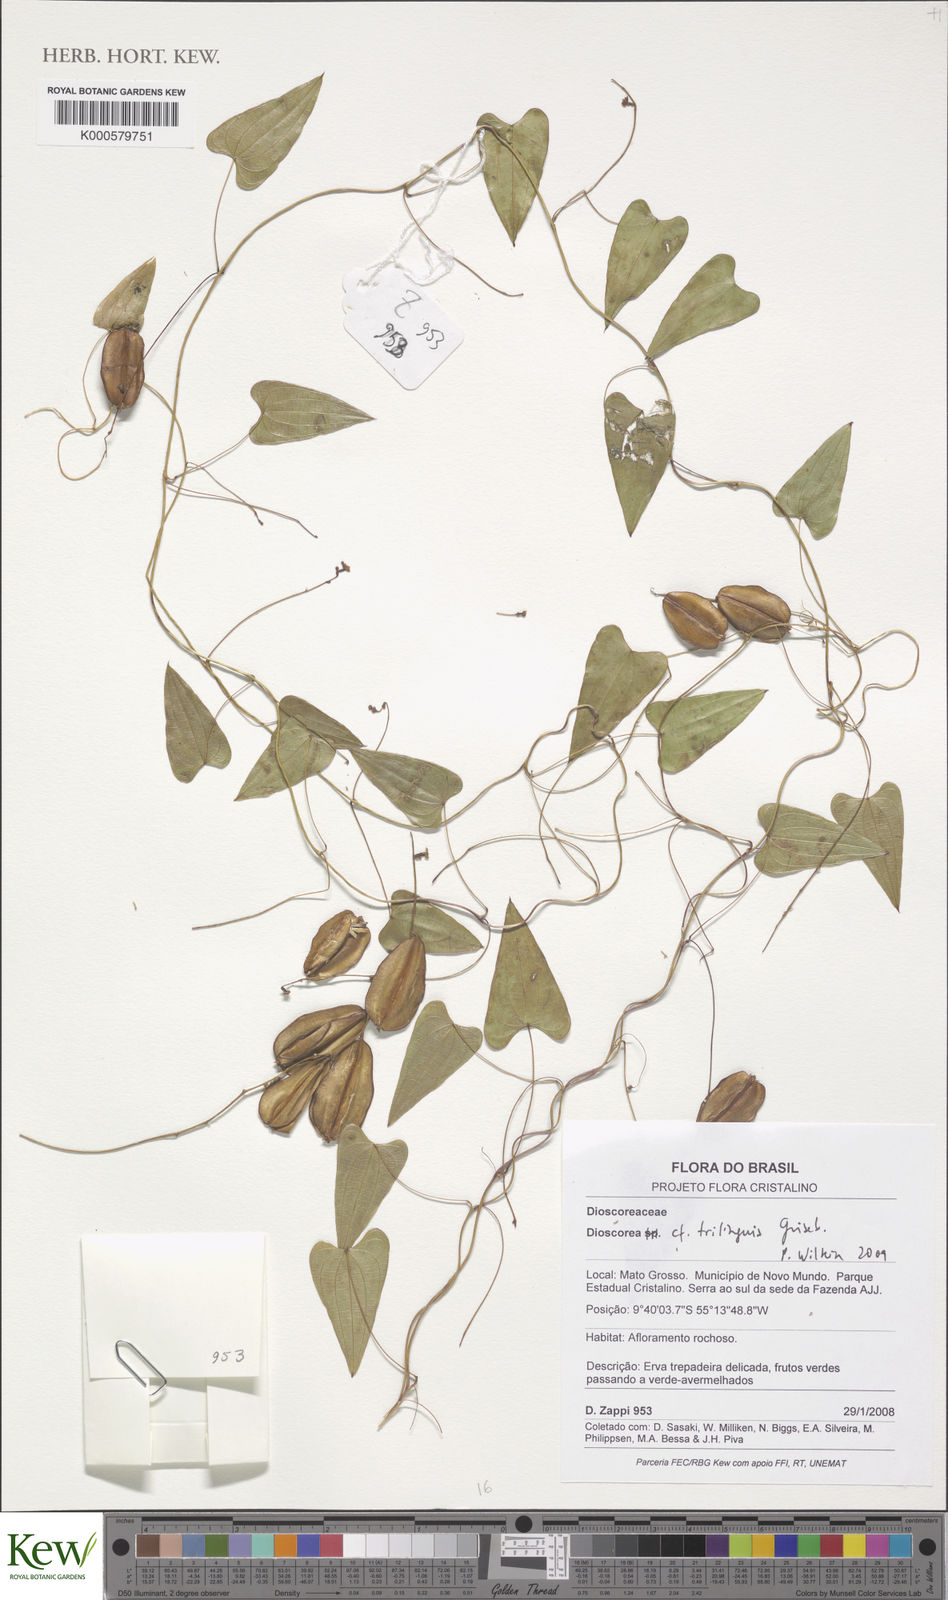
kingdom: Plantae
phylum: Tracheophyta
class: Liliopsida
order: Dioscoreales
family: Dioscoreaceae
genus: Dioscorea
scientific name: Dioscorea trilinguis
